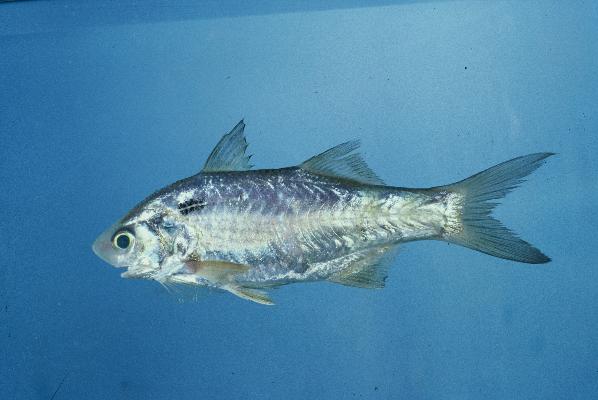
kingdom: Animalia
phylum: Chordata
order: Perciformes
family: Polynemidae
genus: Polydactylus
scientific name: Polydactylus sextarius
